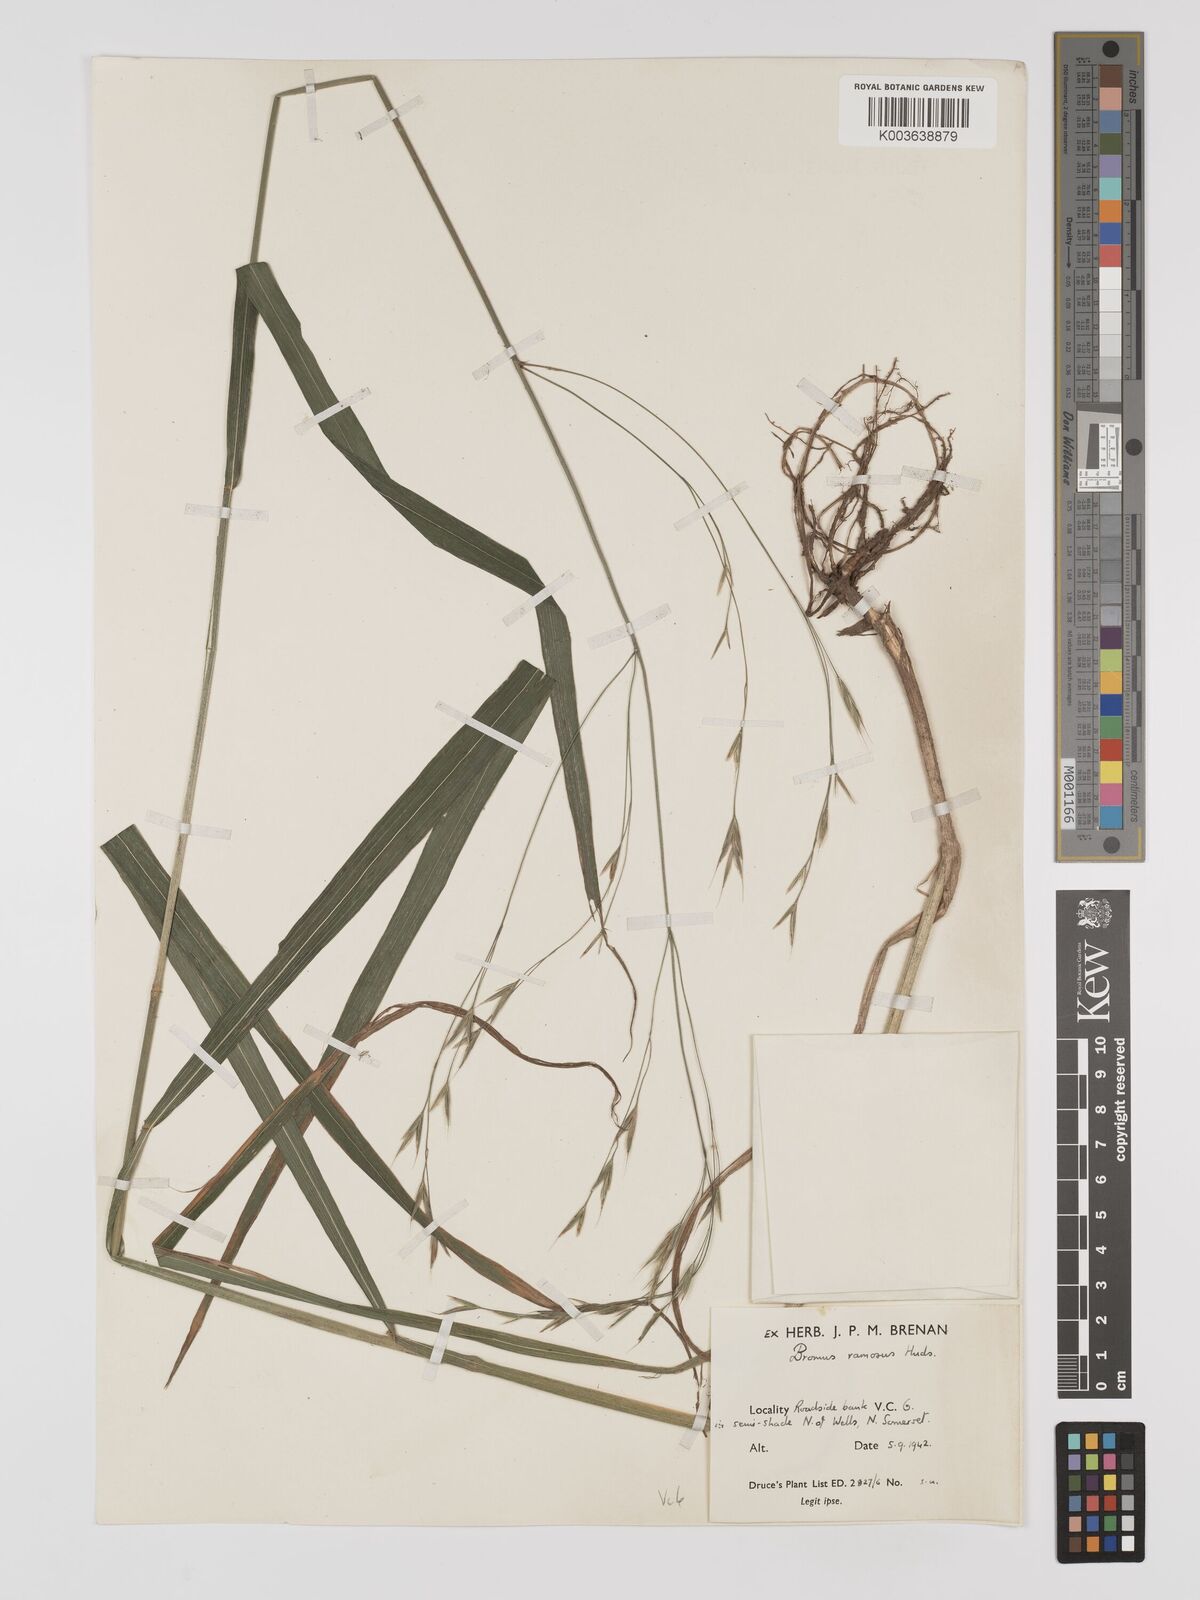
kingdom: Plantae
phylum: Tracheophyta
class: Liliopsida
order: Poales
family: Poaceae
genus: Brachypodium
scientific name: Brachypodium retusum
